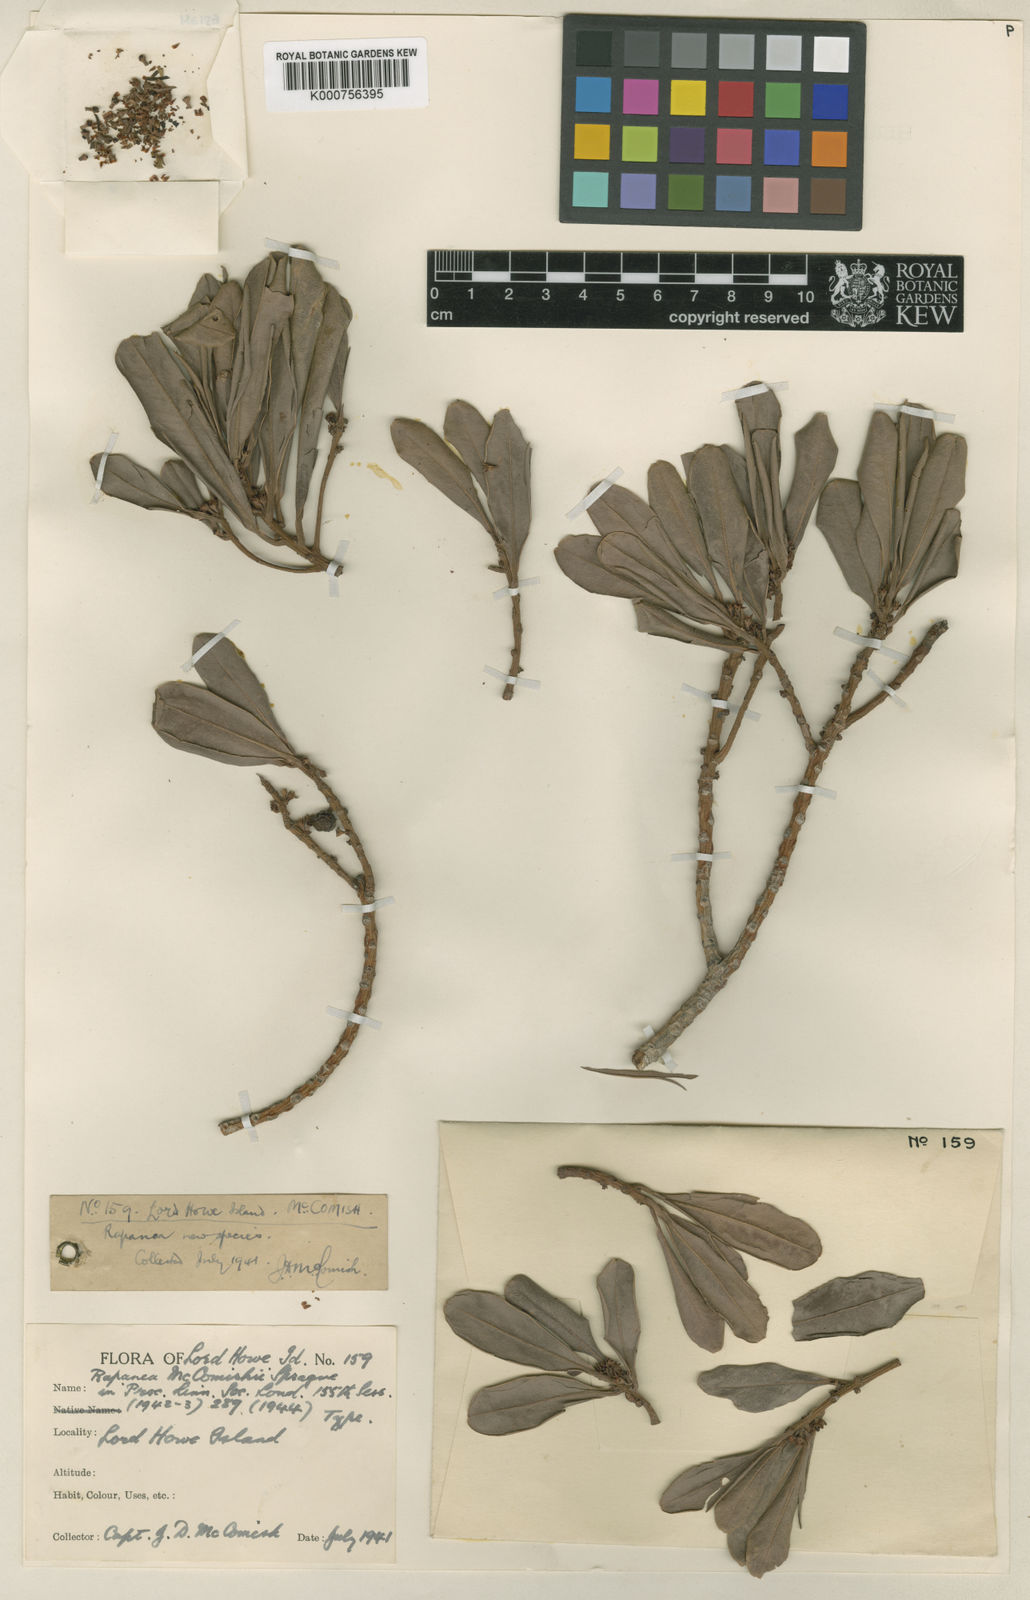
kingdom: Plantae
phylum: Tracheophyta
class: Magnoliopsida
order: Ericales
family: Primulaceae
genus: Myrsine
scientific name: Myrsine mccomishii
